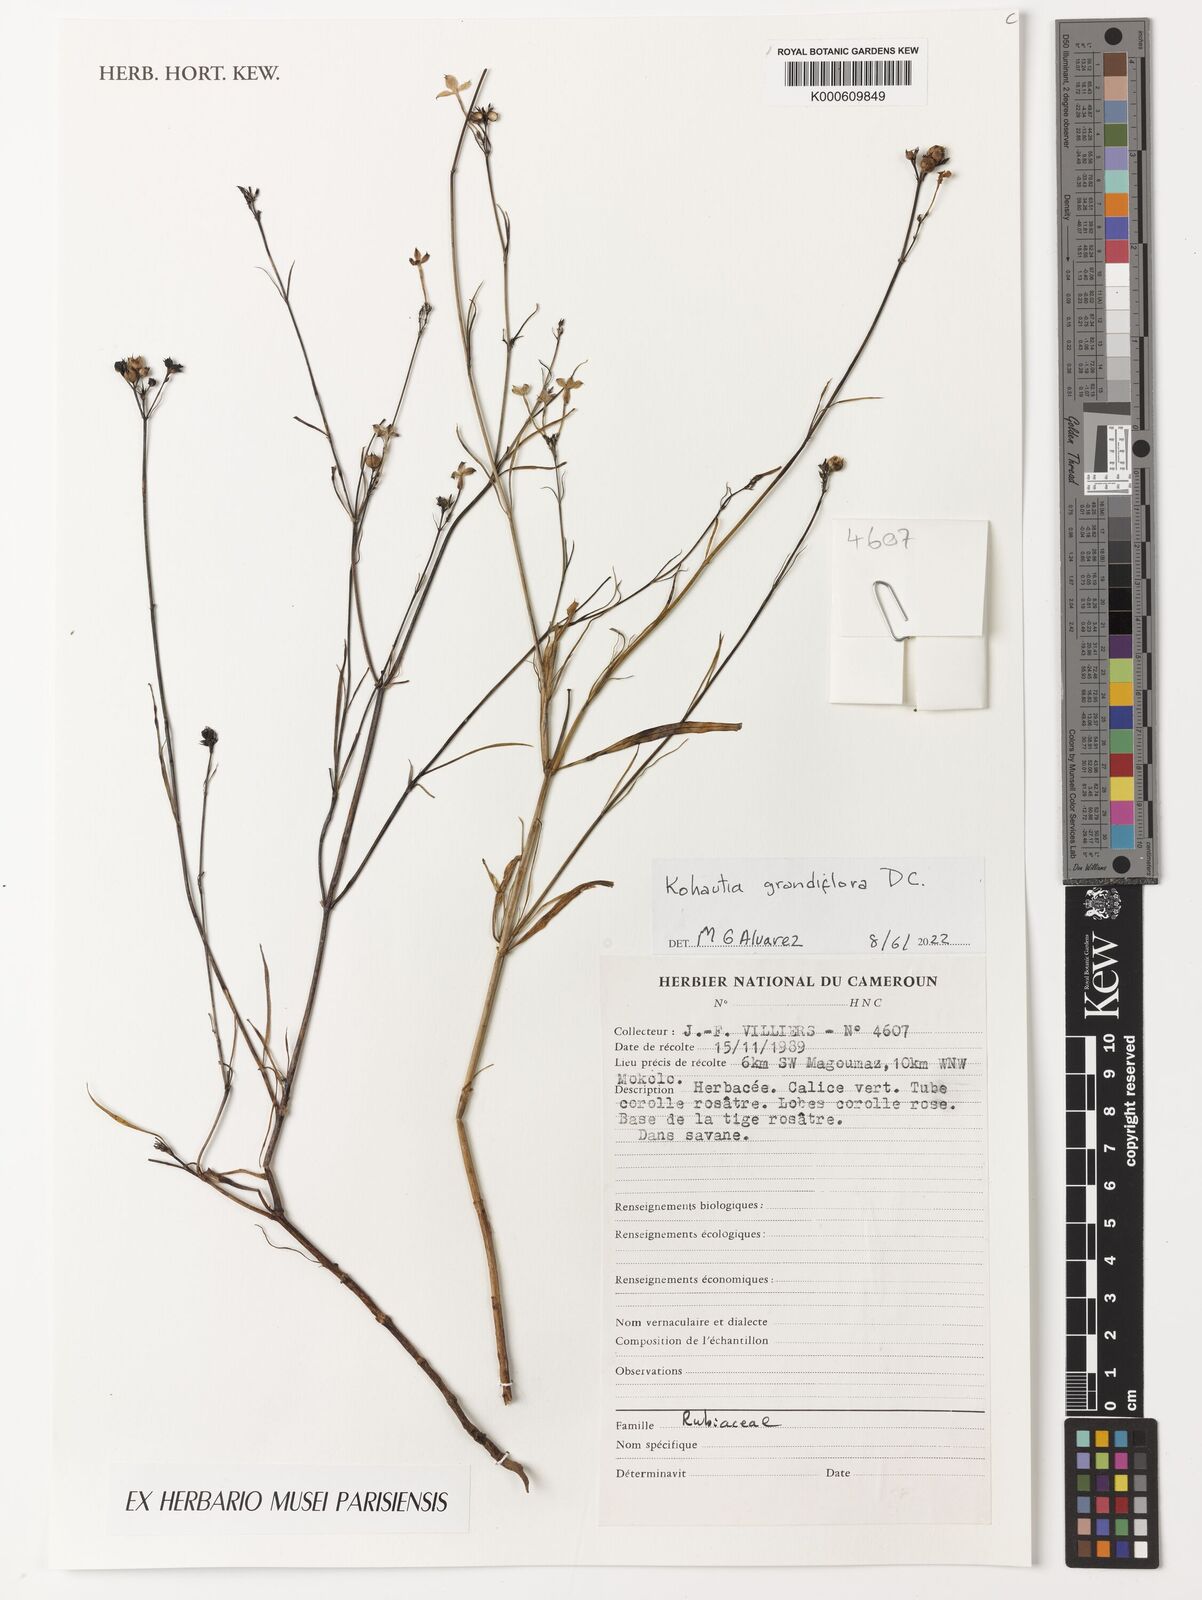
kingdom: Plantae
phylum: Tracheophyta
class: Magnoliopsida
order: Gentianales
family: Rubiaceae
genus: Kohautia
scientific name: Kohautia grandiflora
